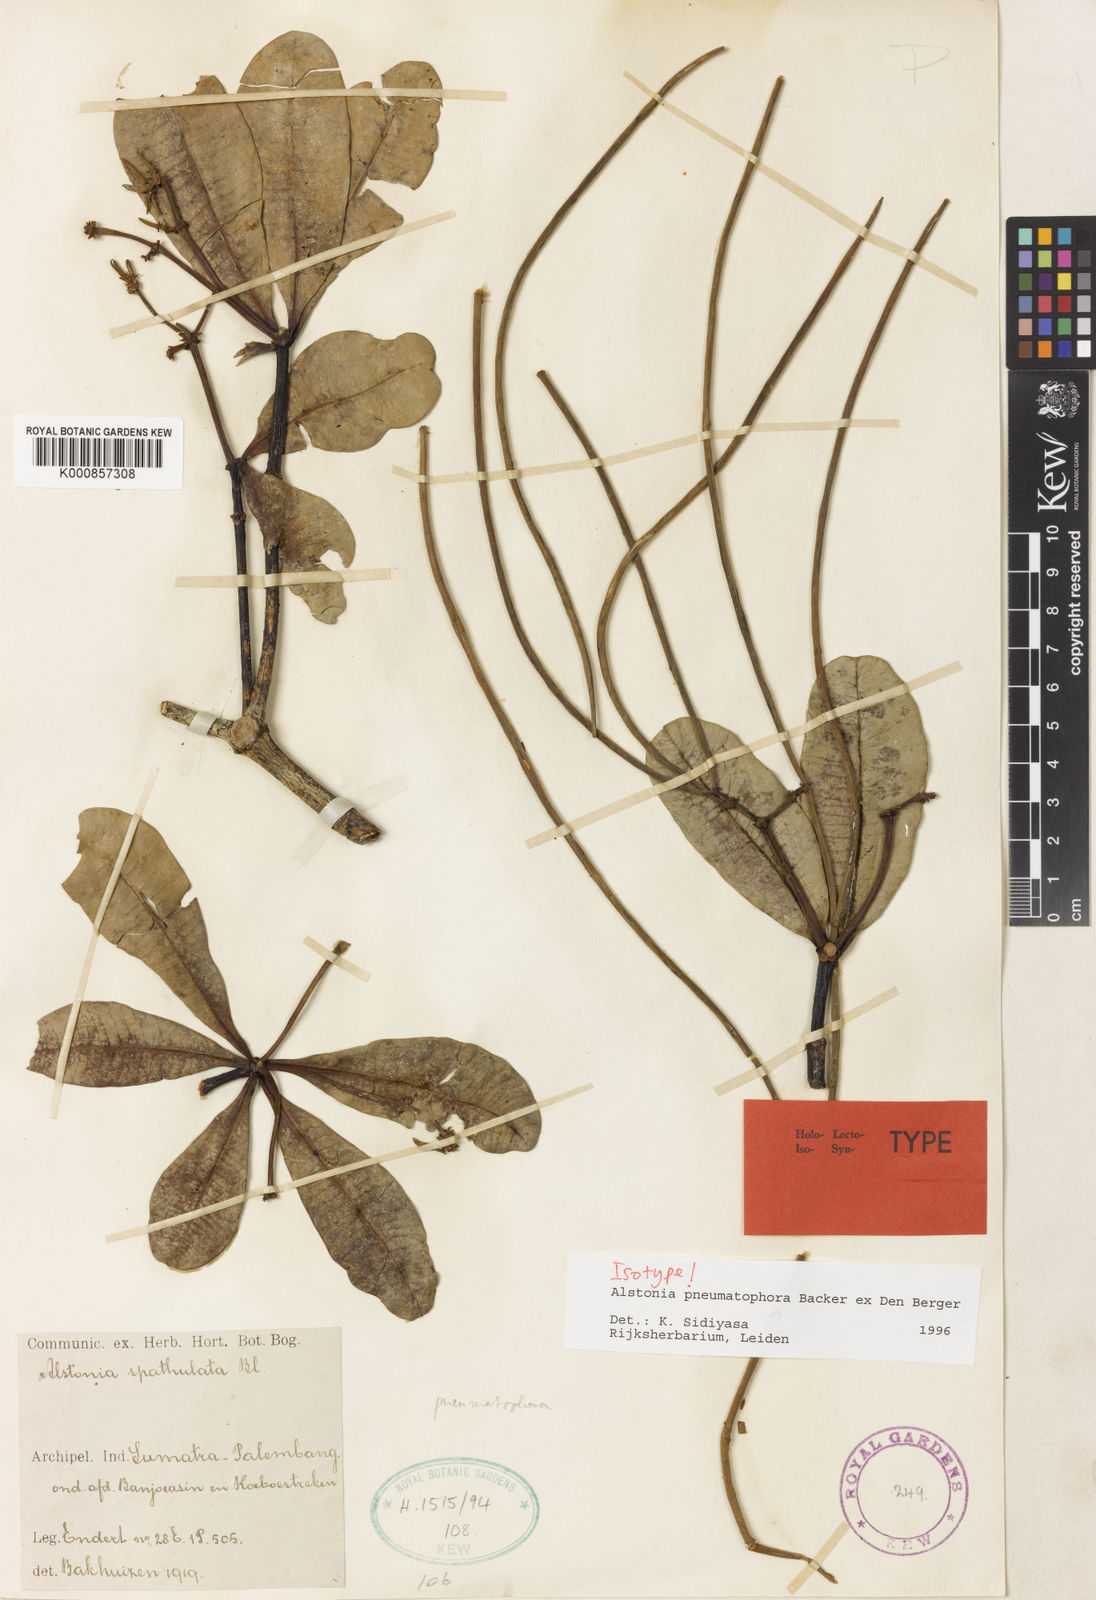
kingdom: Plantae
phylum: Tracheophyta
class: Magnoliopsida
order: Gentianales
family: Apocynaceae
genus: Alstonia
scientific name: Alstonia pneumatophora
